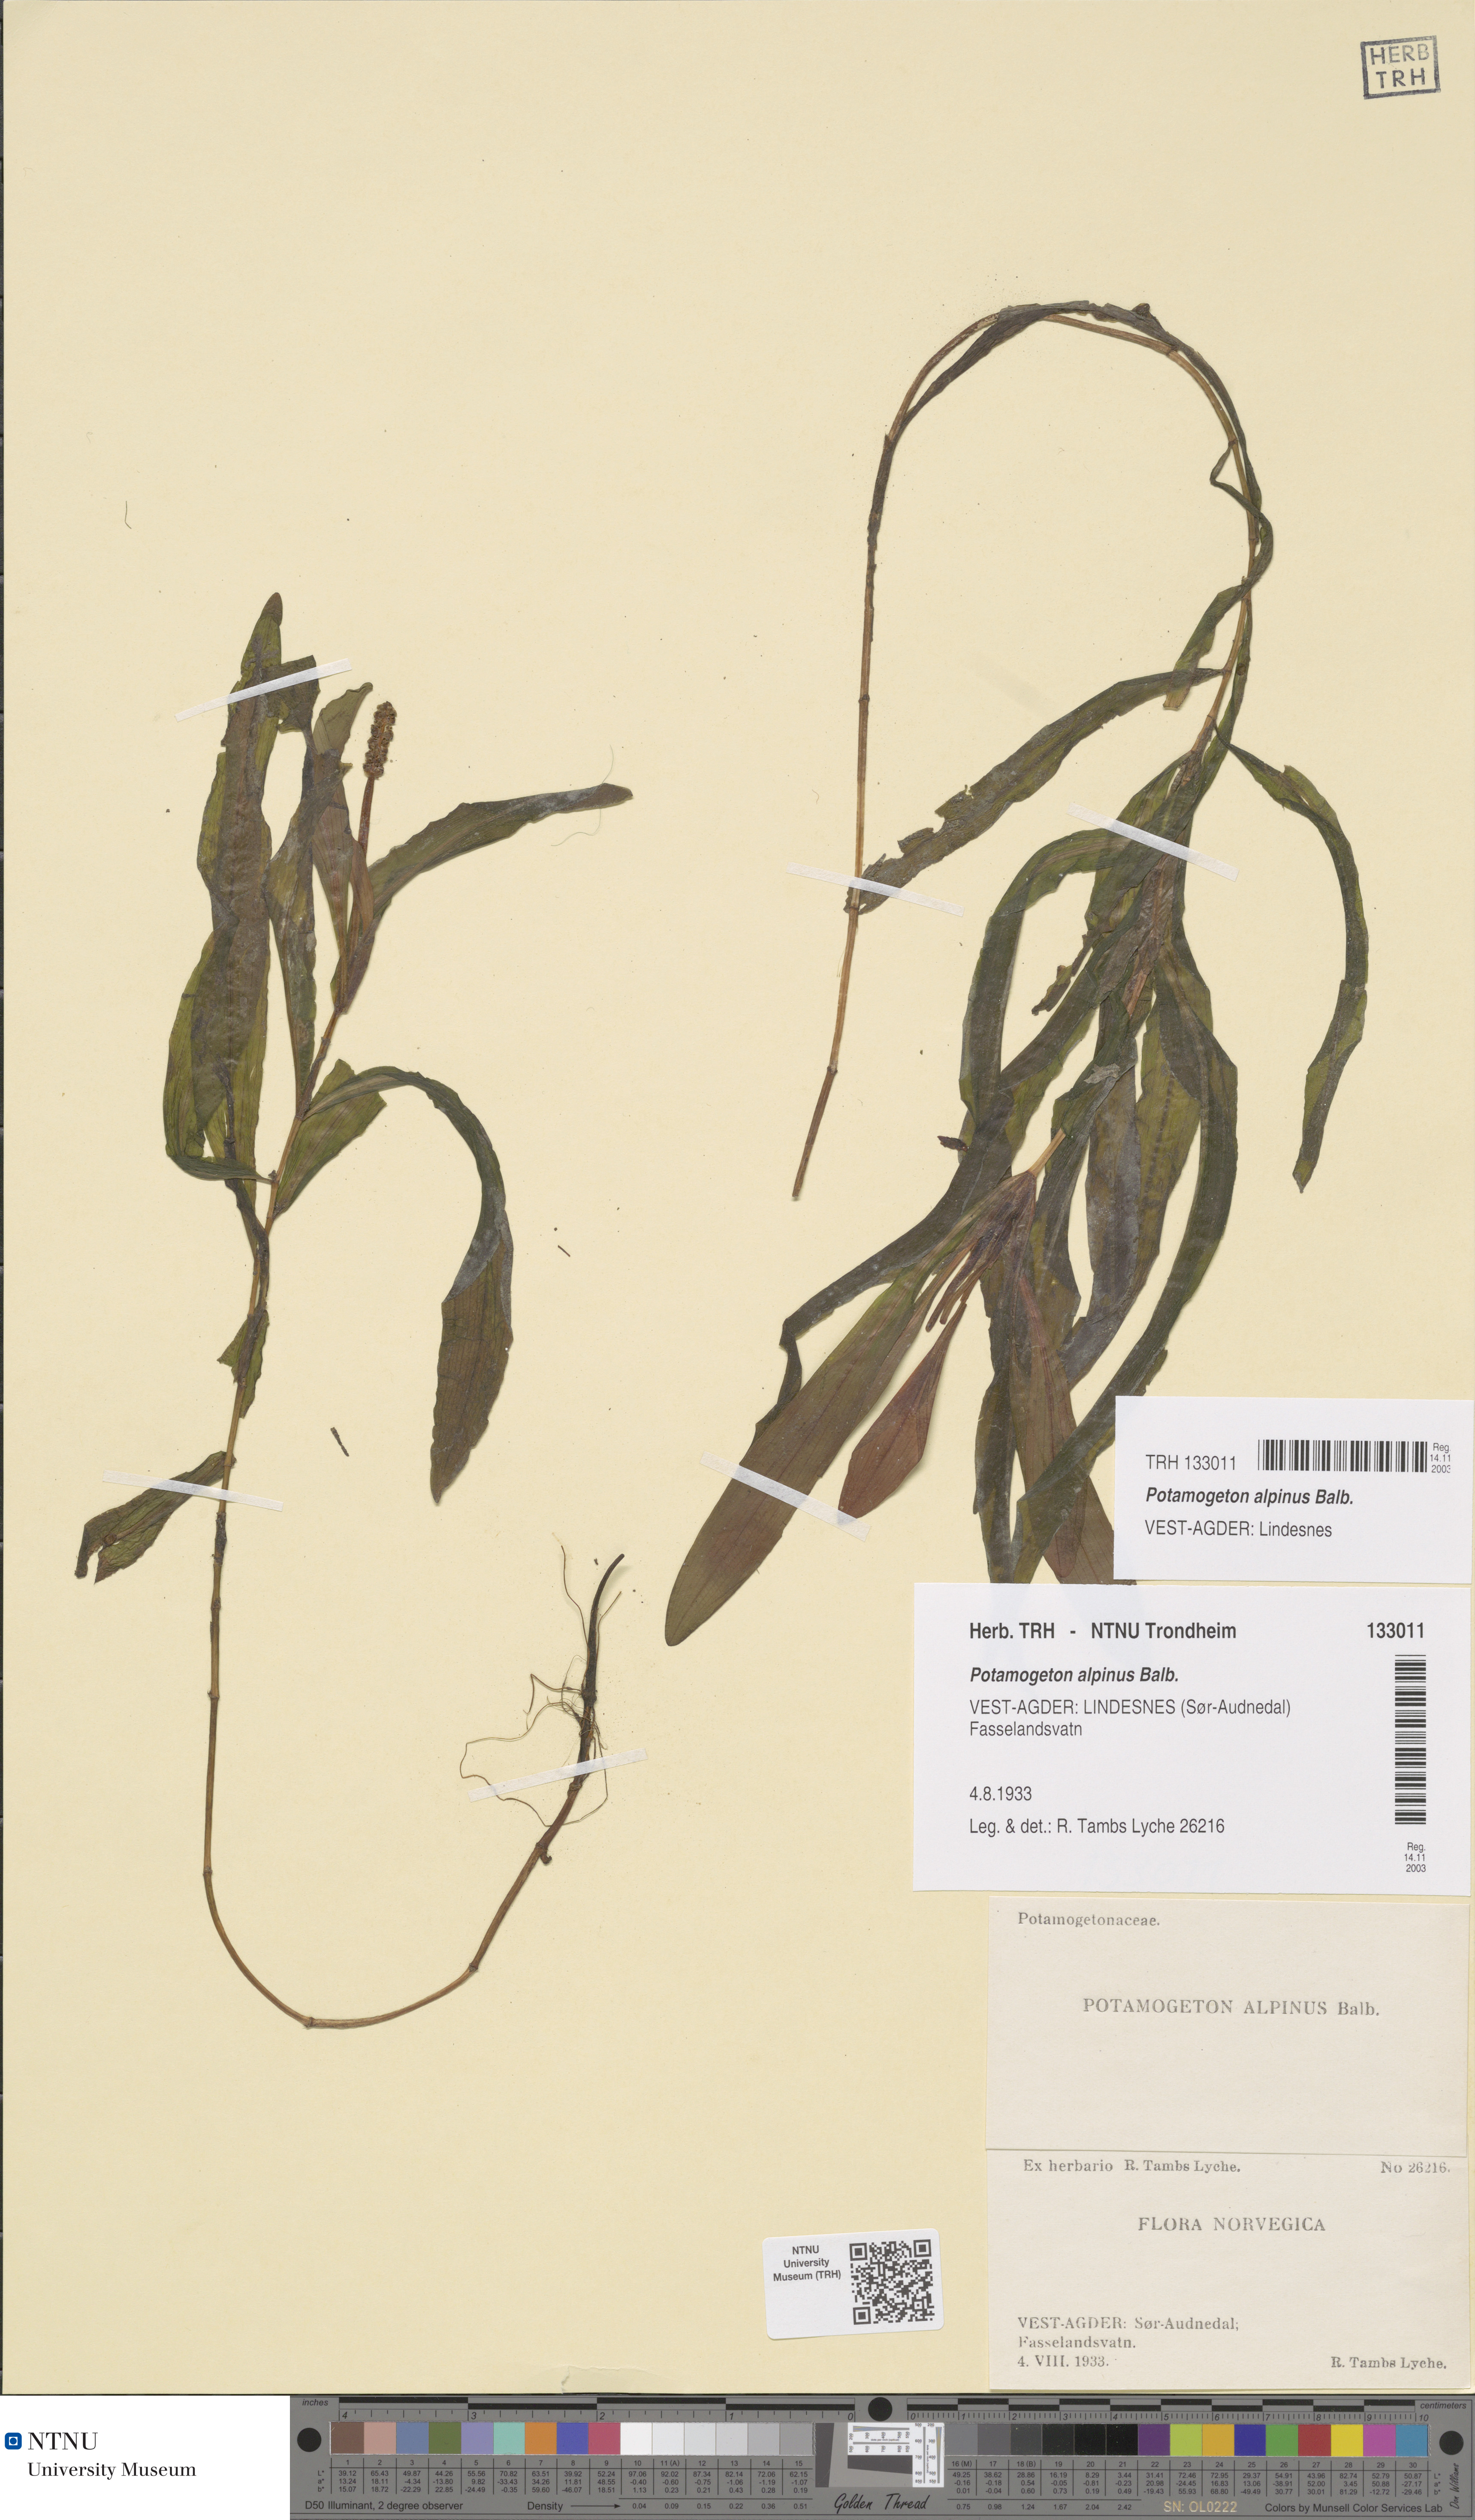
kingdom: Plantae
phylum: Tracheophyta
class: Liliopsida
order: Alismatales
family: Potamogetonaceae
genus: Potamogeton
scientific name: Potamogeton alpinus
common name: Red pondweed
